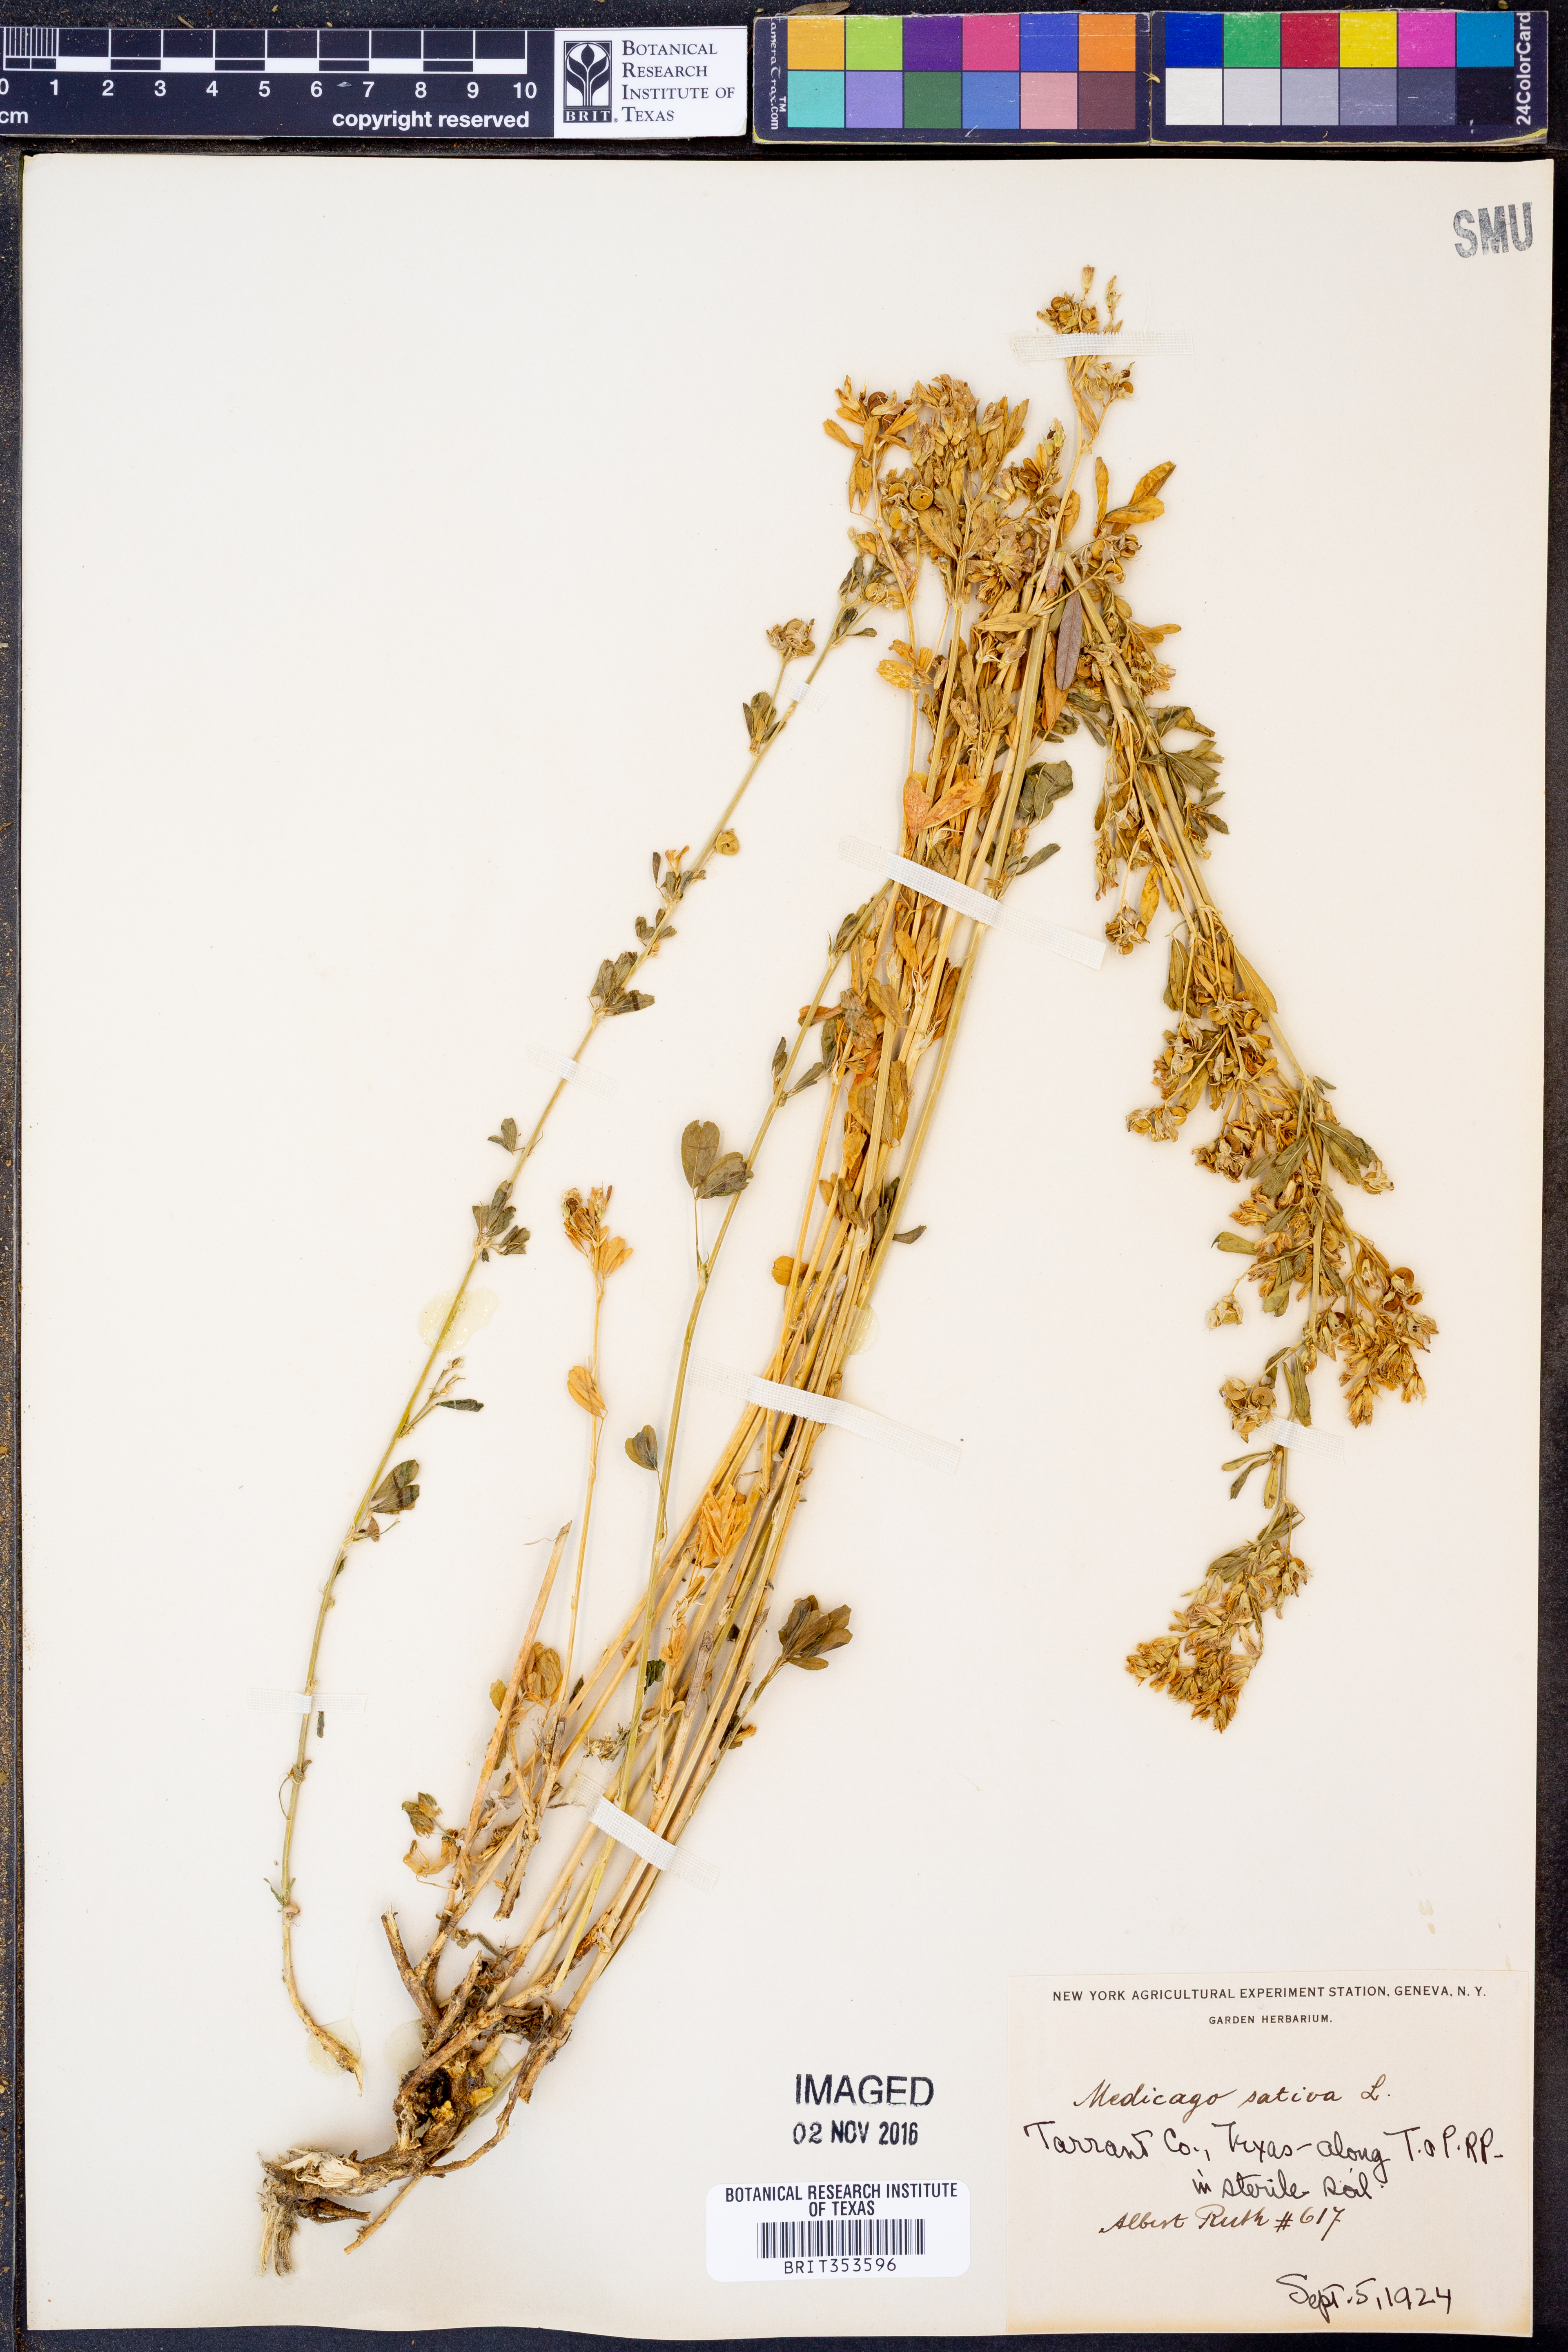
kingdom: Plantae
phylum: Tracheophyta
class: Magnoliopsida
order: Fabales
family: Fabaceae
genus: Medicago
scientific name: Medicago sativa
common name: Alfalfa
